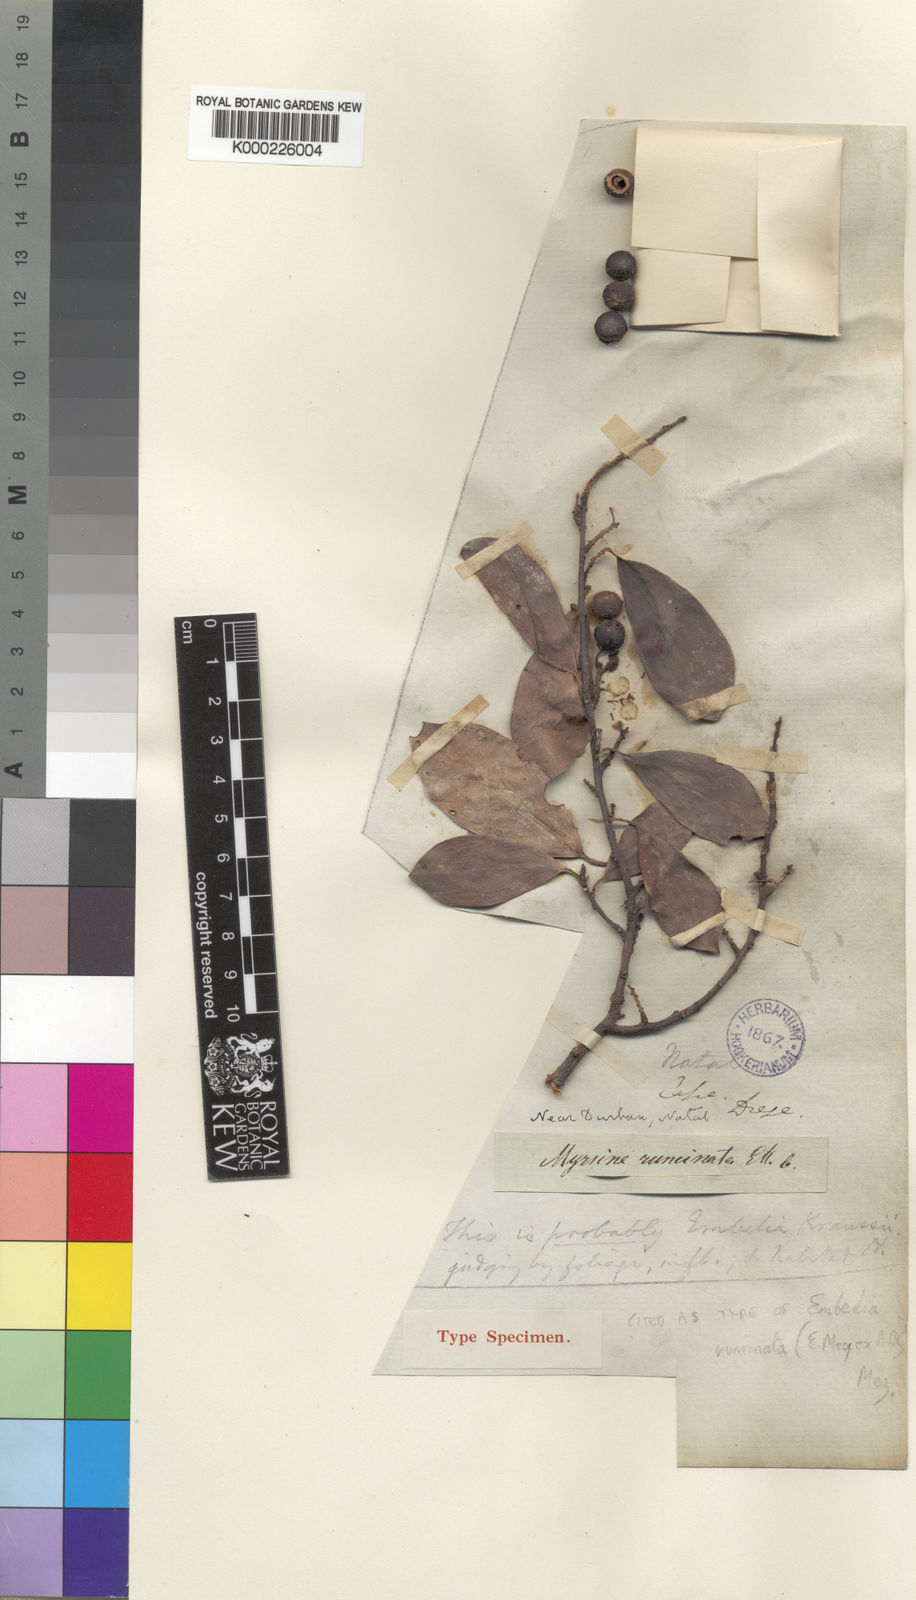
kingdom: Plantae
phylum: Tracheophyta
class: Magnoliopsida
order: Ericales
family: Primulaceae
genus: Embelia
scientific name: Embelia ruminata
